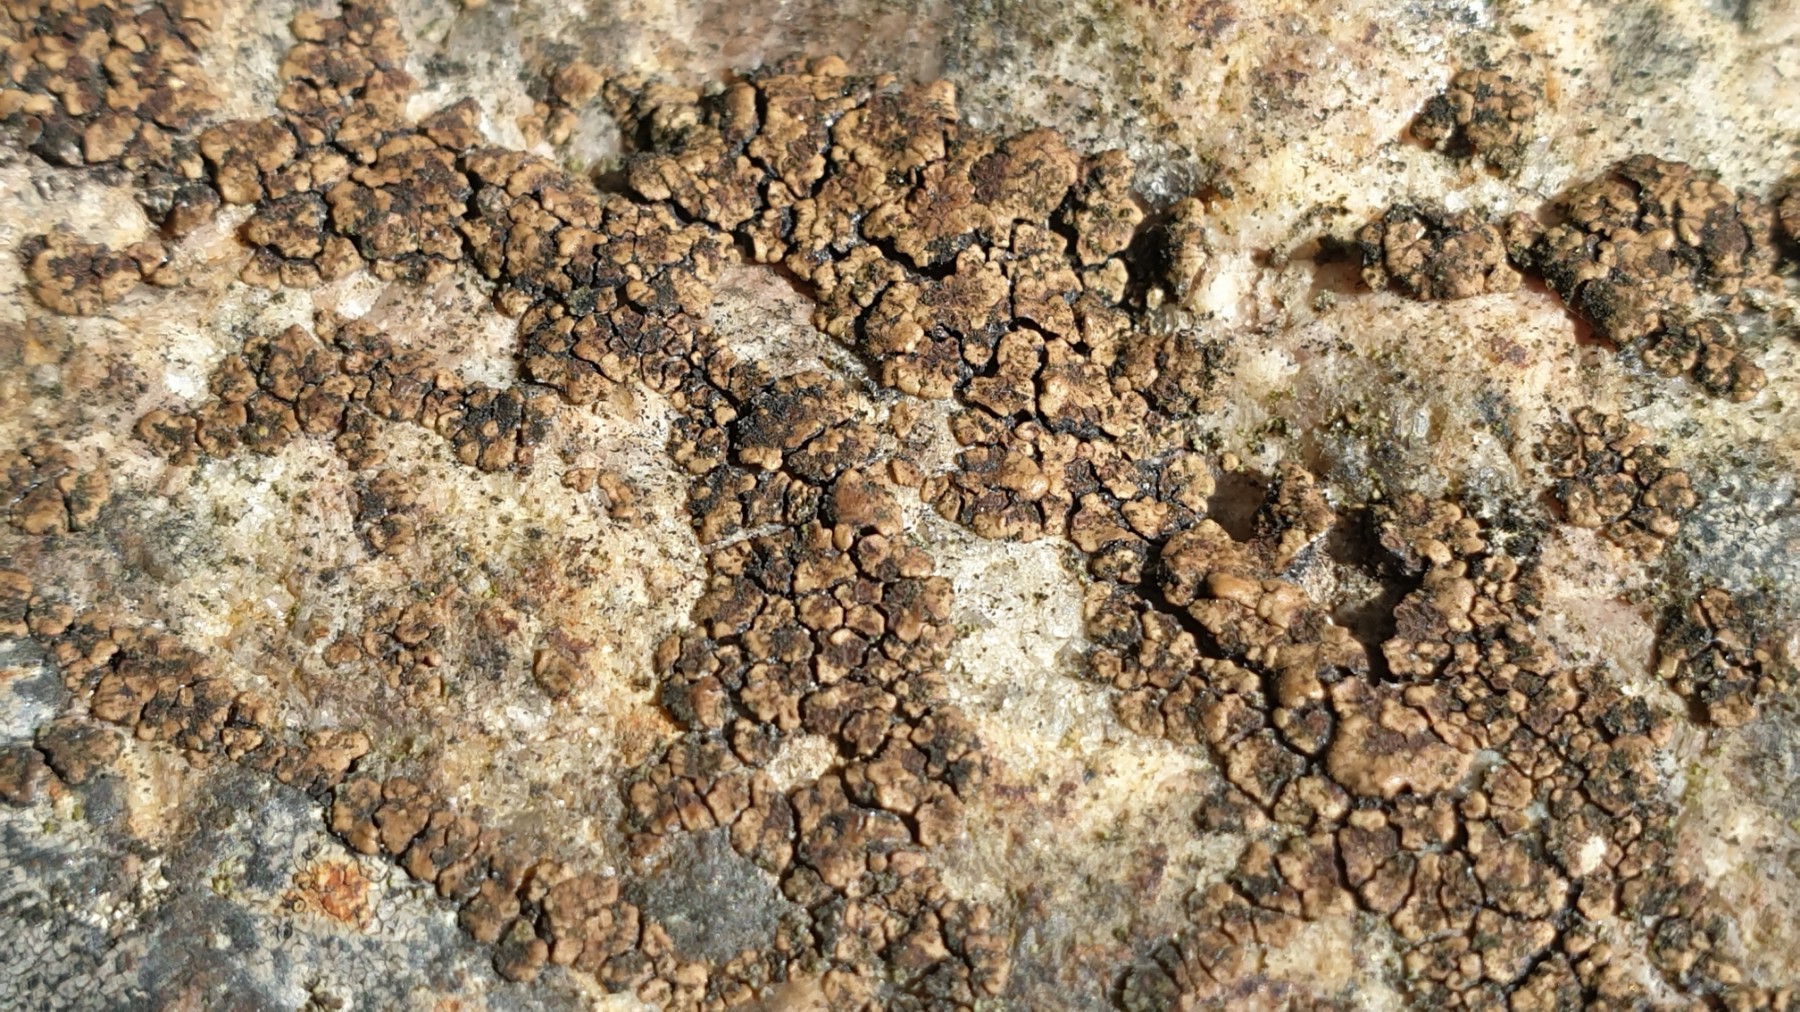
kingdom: Fungi
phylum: Ascomycota
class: Lecanoromycetes
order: Acarosporales
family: Acarosporaceae
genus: Acarospora
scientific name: Acarospora fuscata
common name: brun småsporelav
